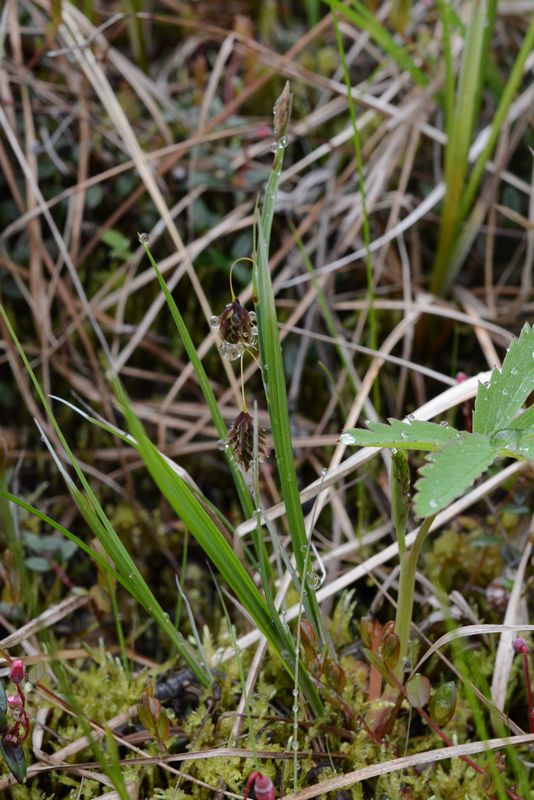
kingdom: Plantae
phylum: Tracheophyta
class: Liliopsida
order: Poales
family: Cyperaceae
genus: Carex
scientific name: Carex magellanica
